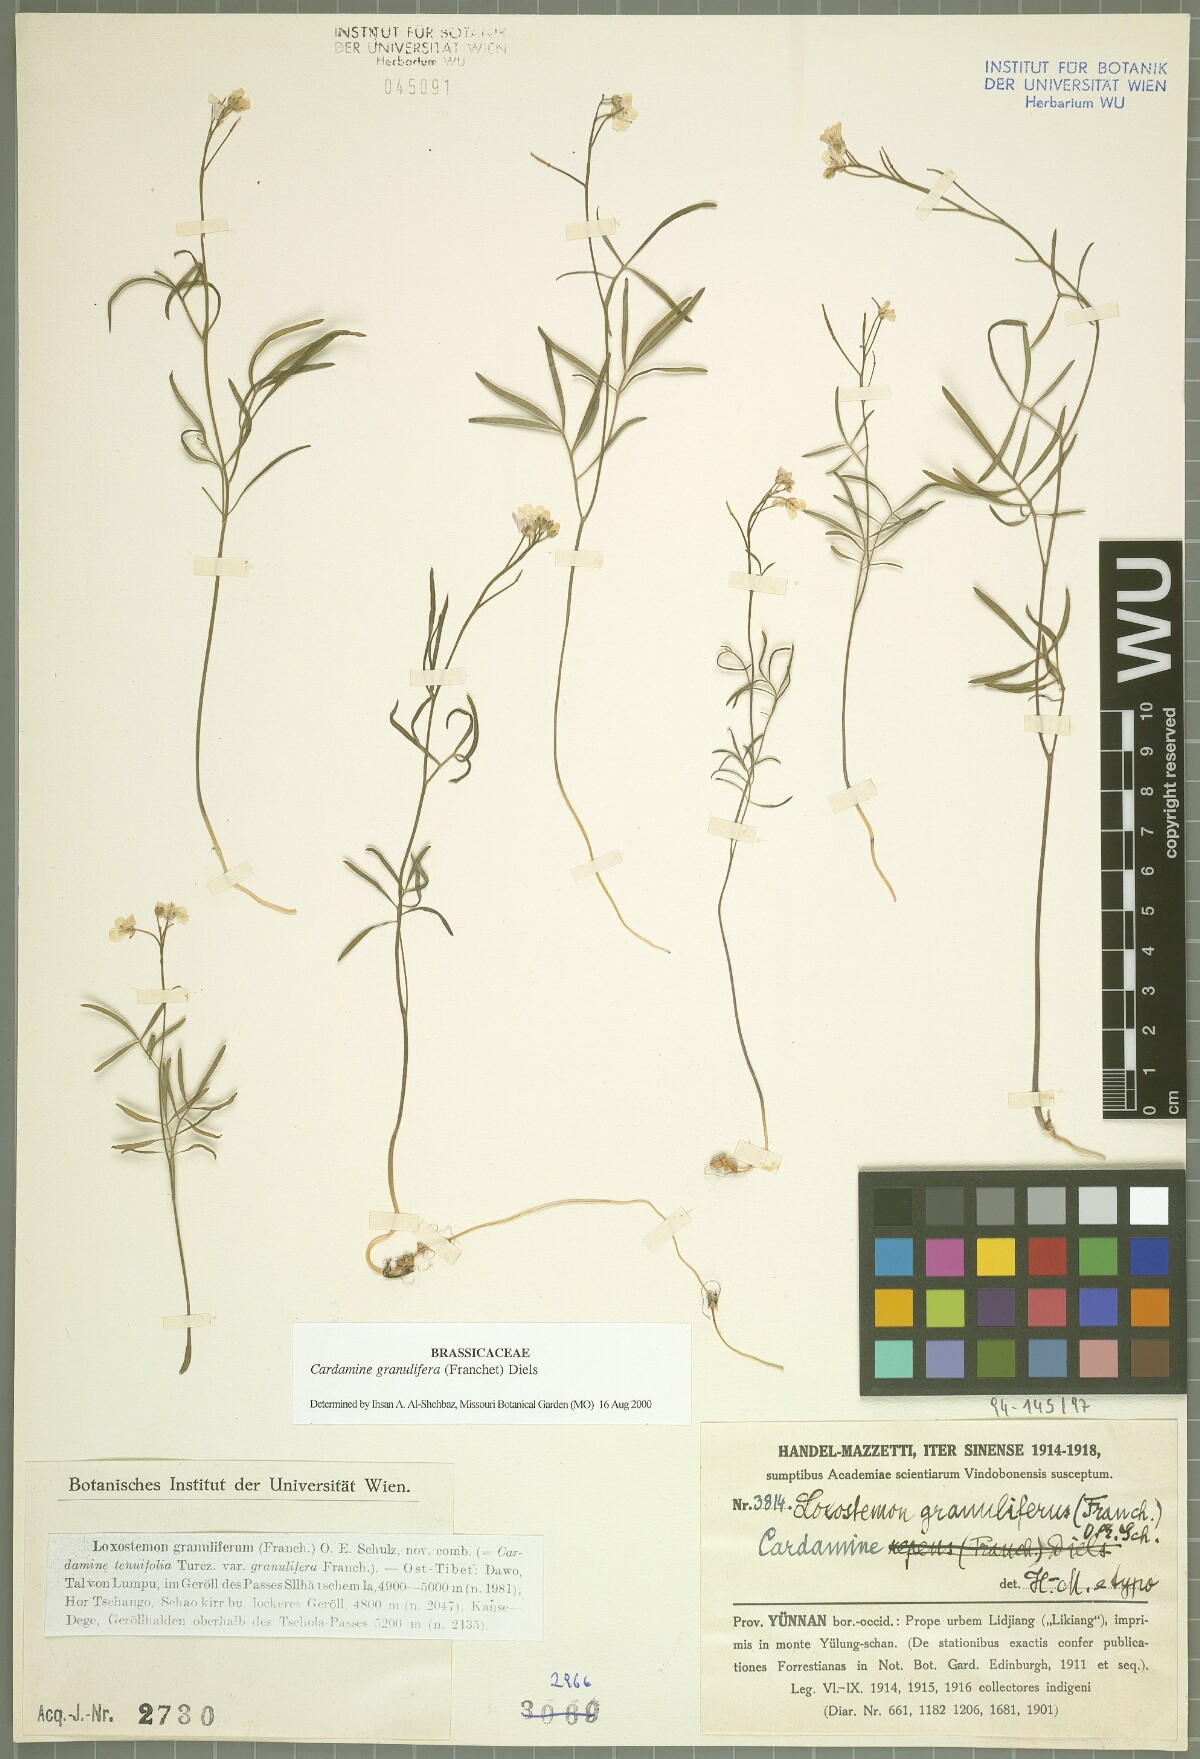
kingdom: Plantae
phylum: Tracheophyta
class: Magnoliopsida
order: Brassicales
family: Brassicaceae
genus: Cardamine
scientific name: Cardamine granulifera
